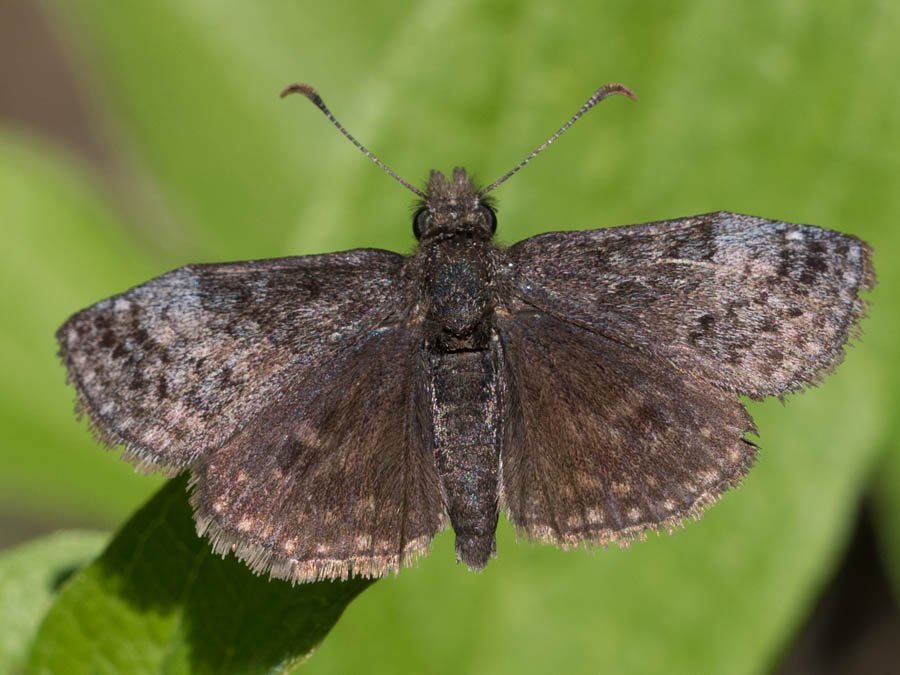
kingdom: Animalia
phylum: Arthropoda
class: Insecta
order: Lepidoptera
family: Hesperiidae
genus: Erynnis
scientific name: Erynnis icelus
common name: Dreamy Duskywing
